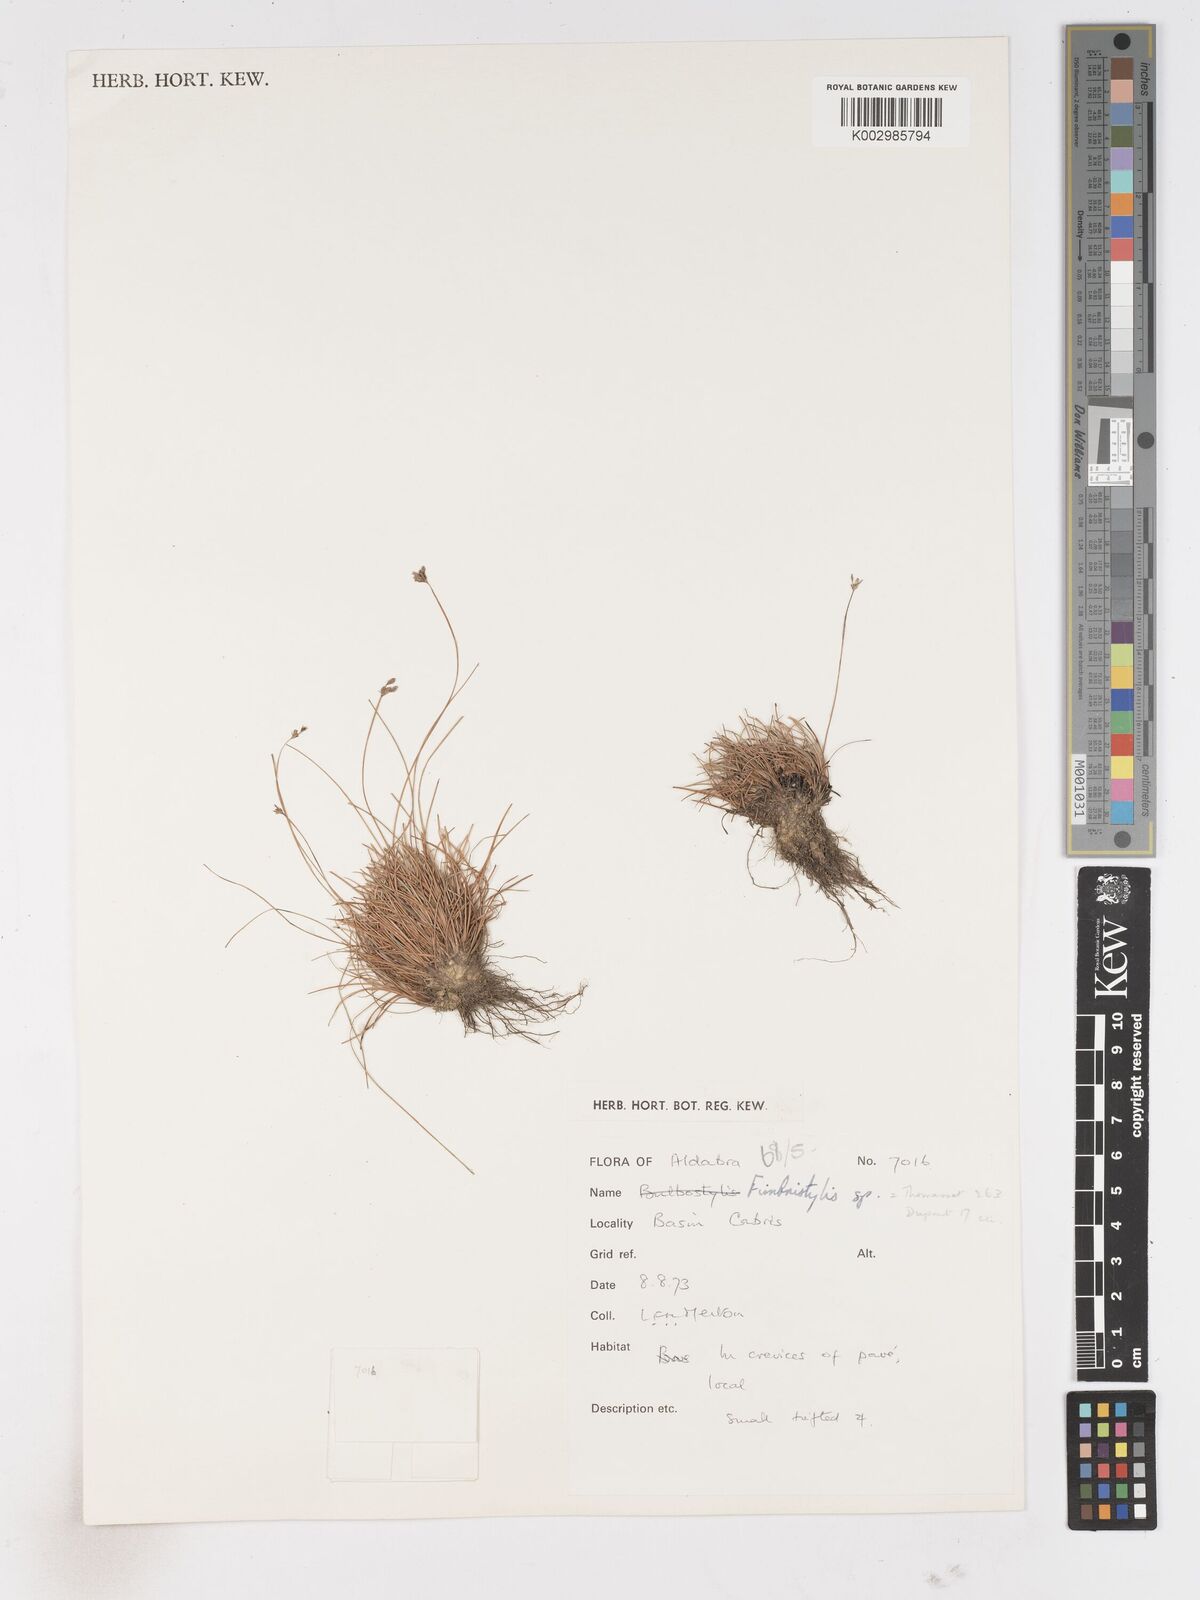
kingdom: Plantae
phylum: Tracheophyta
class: Liliopsida
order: Poales
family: Cyperaceae
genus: Fimbristylis
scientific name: Fimbristylis
